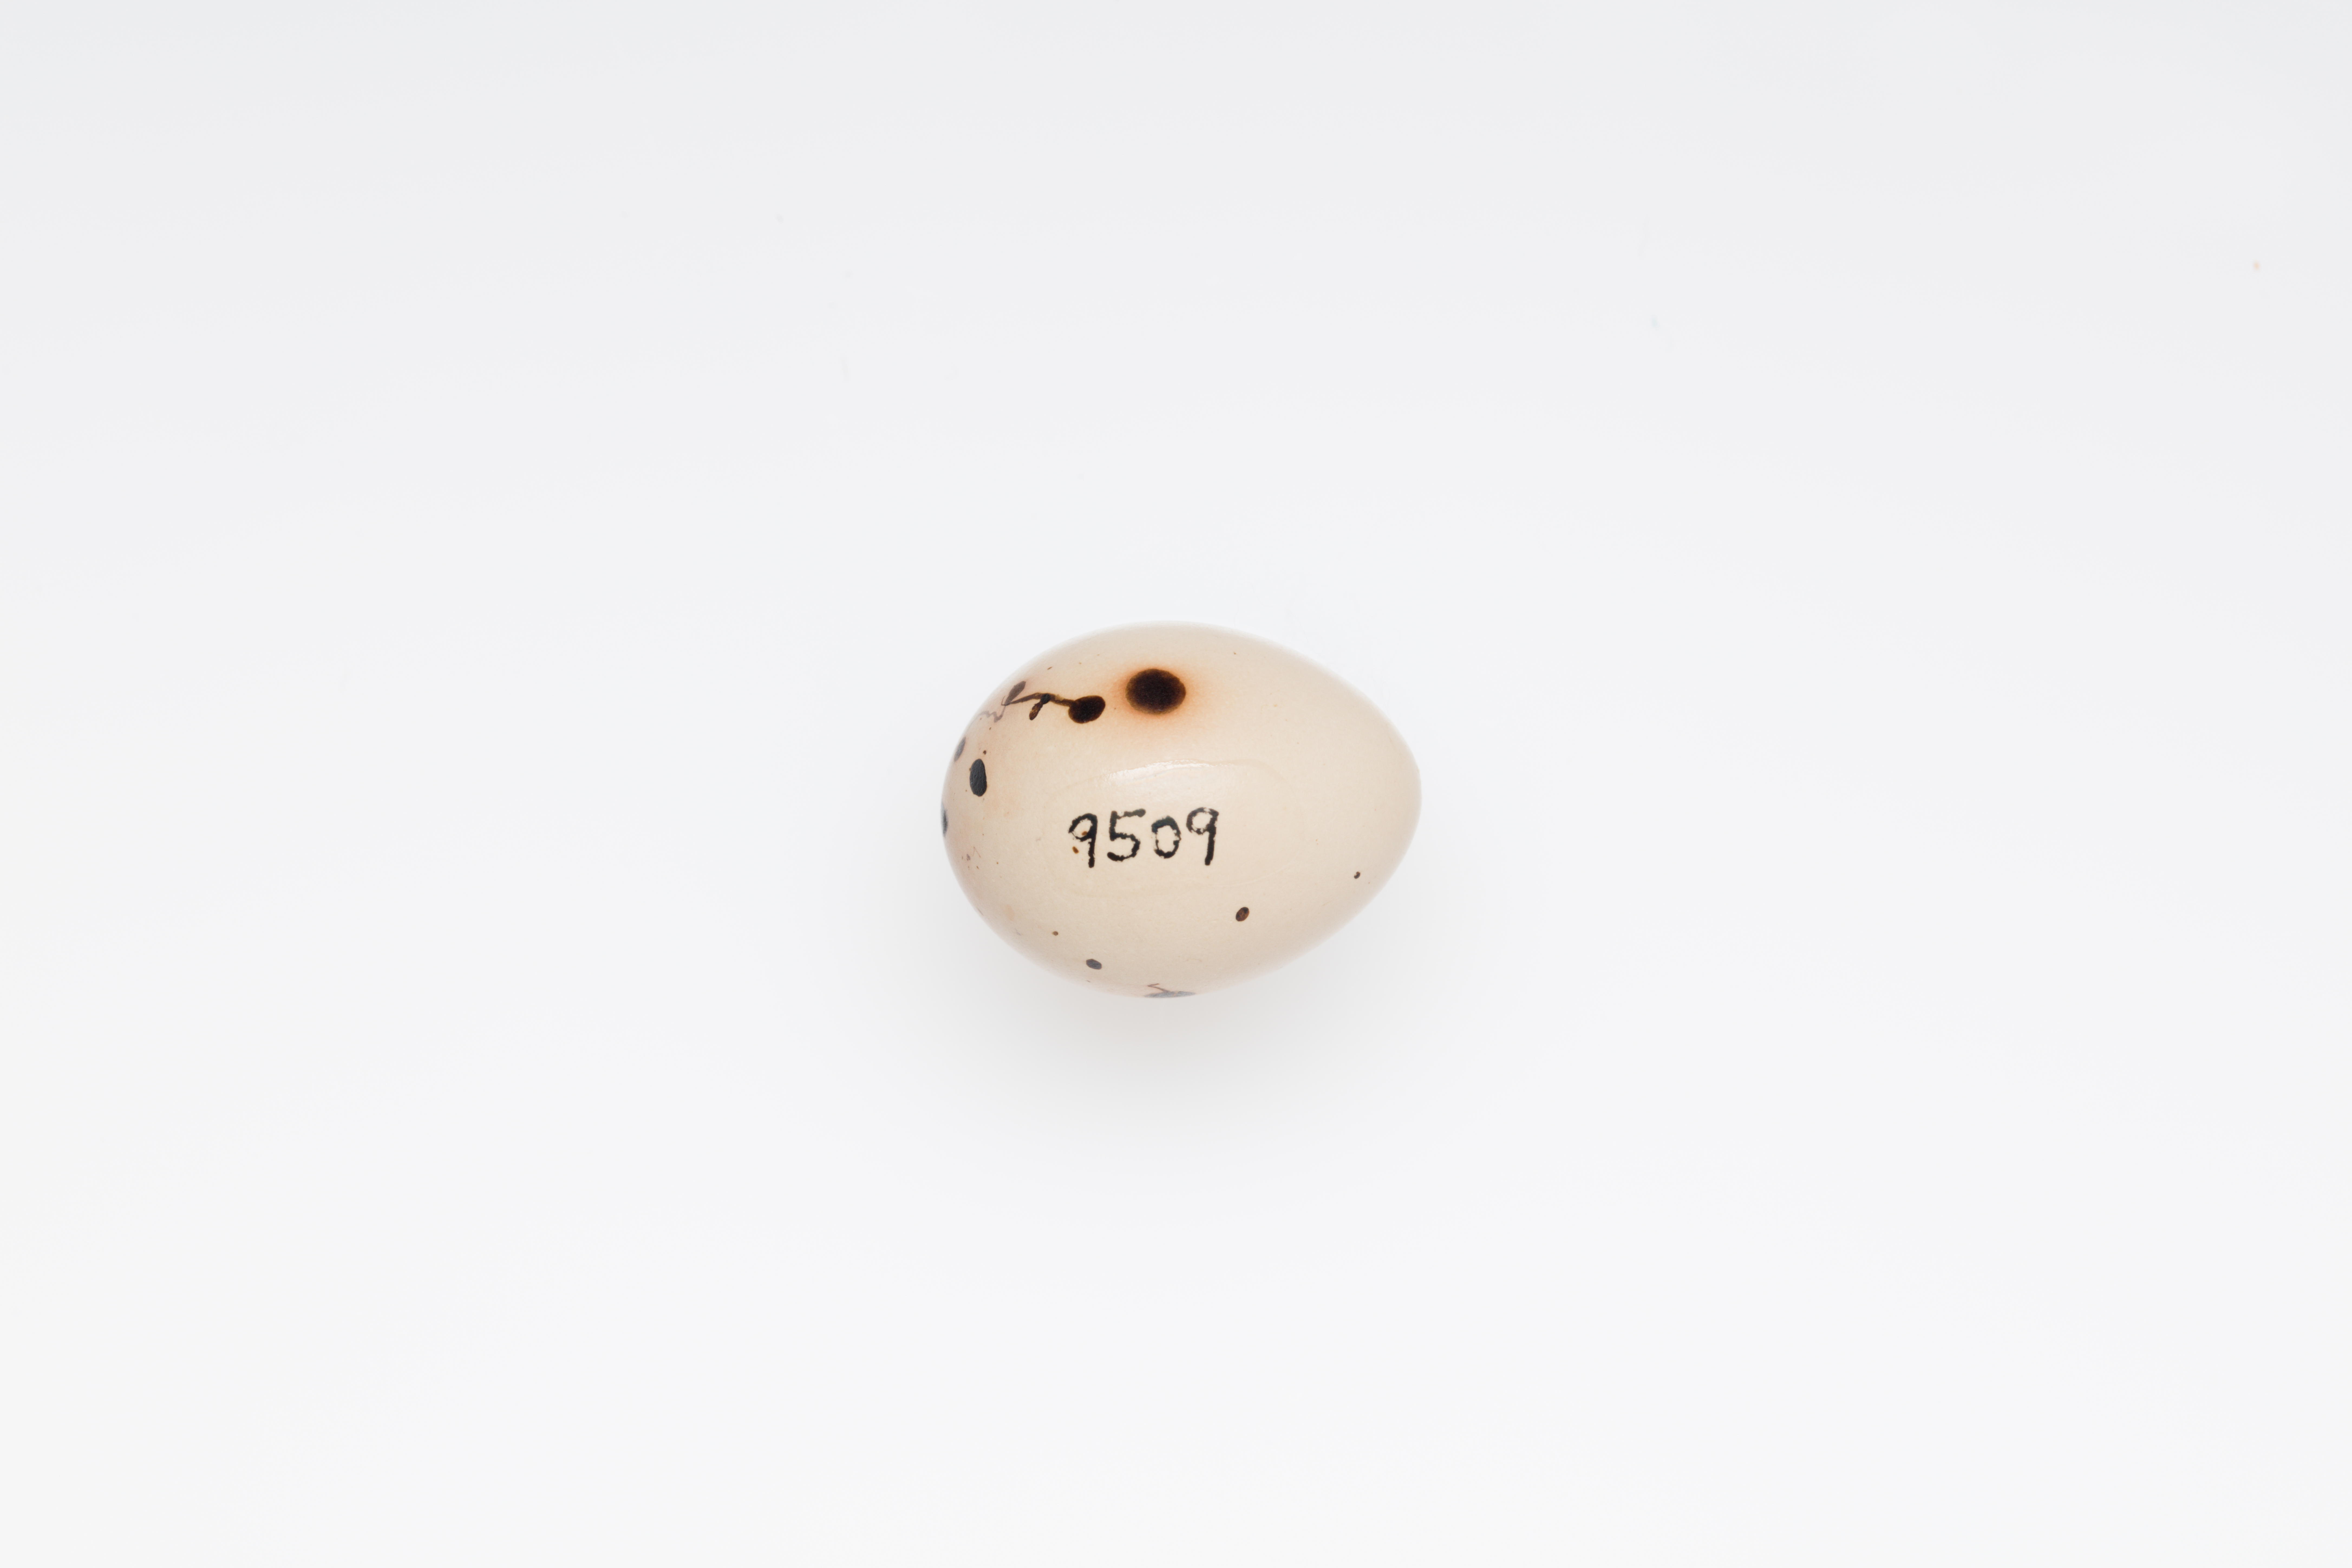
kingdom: Animalia
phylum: Chordata
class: Aves
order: Passeriformes
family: Fringillidae
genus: Fringilla
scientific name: Fringilla coelebs
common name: Common chaffinch
